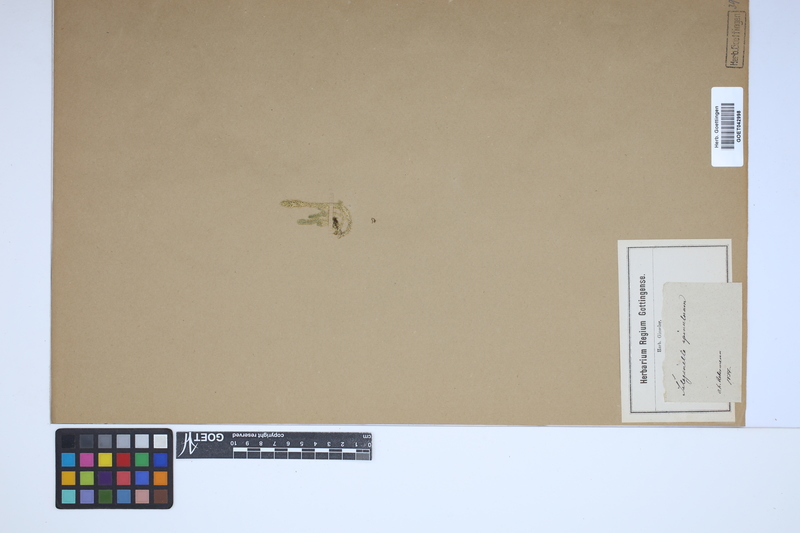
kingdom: Plantae
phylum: Tracheophyta
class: Lycopodiopsida
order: Selaginellales
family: Selaginellaceae
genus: Selaginella
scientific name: Selaginella selaginoides
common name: Prickly mountain-moss
